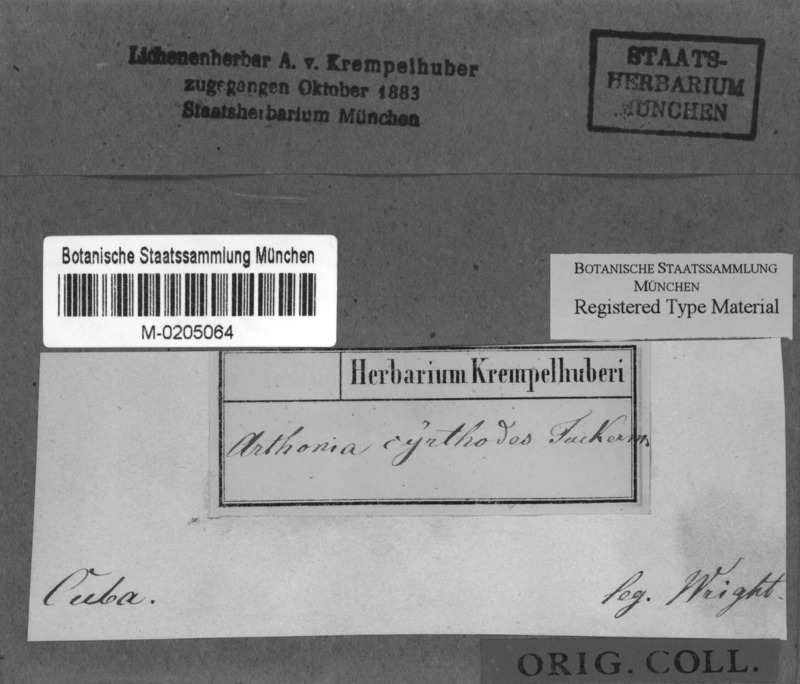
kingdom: Fungi
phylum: Ascomycota
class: Arthoniomycetes
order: Arthoniales
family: Arthoniaceae
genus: Arthothelium
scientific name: Arthothelium cyrtodes
